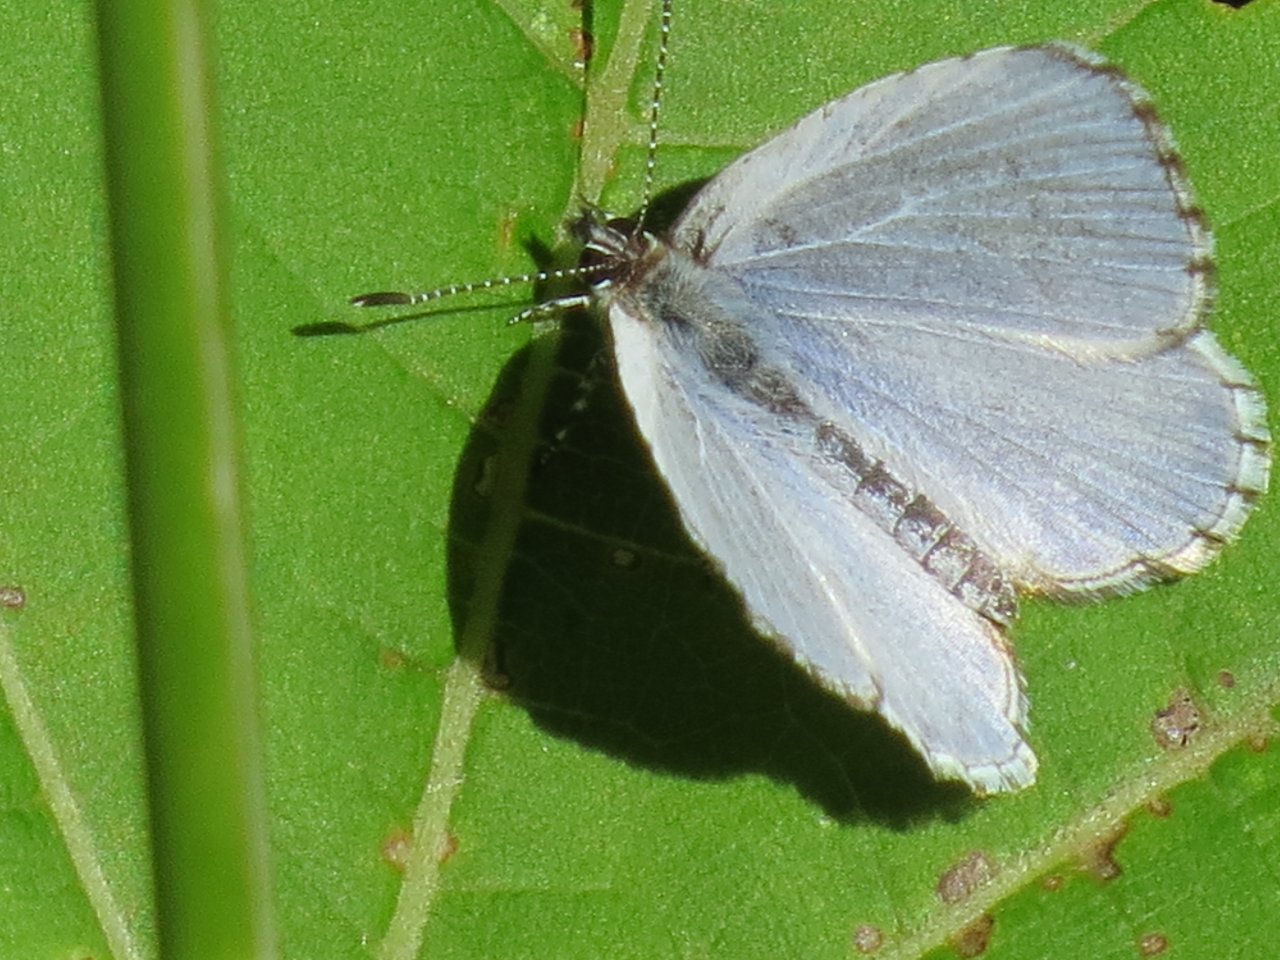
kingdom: Animalia
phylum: Arthropoda
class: Insecta
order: Lepidoptera
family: Lycaenidae
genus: Celastrina
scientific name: Celastrina lucia
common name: Northern Spring Azure
